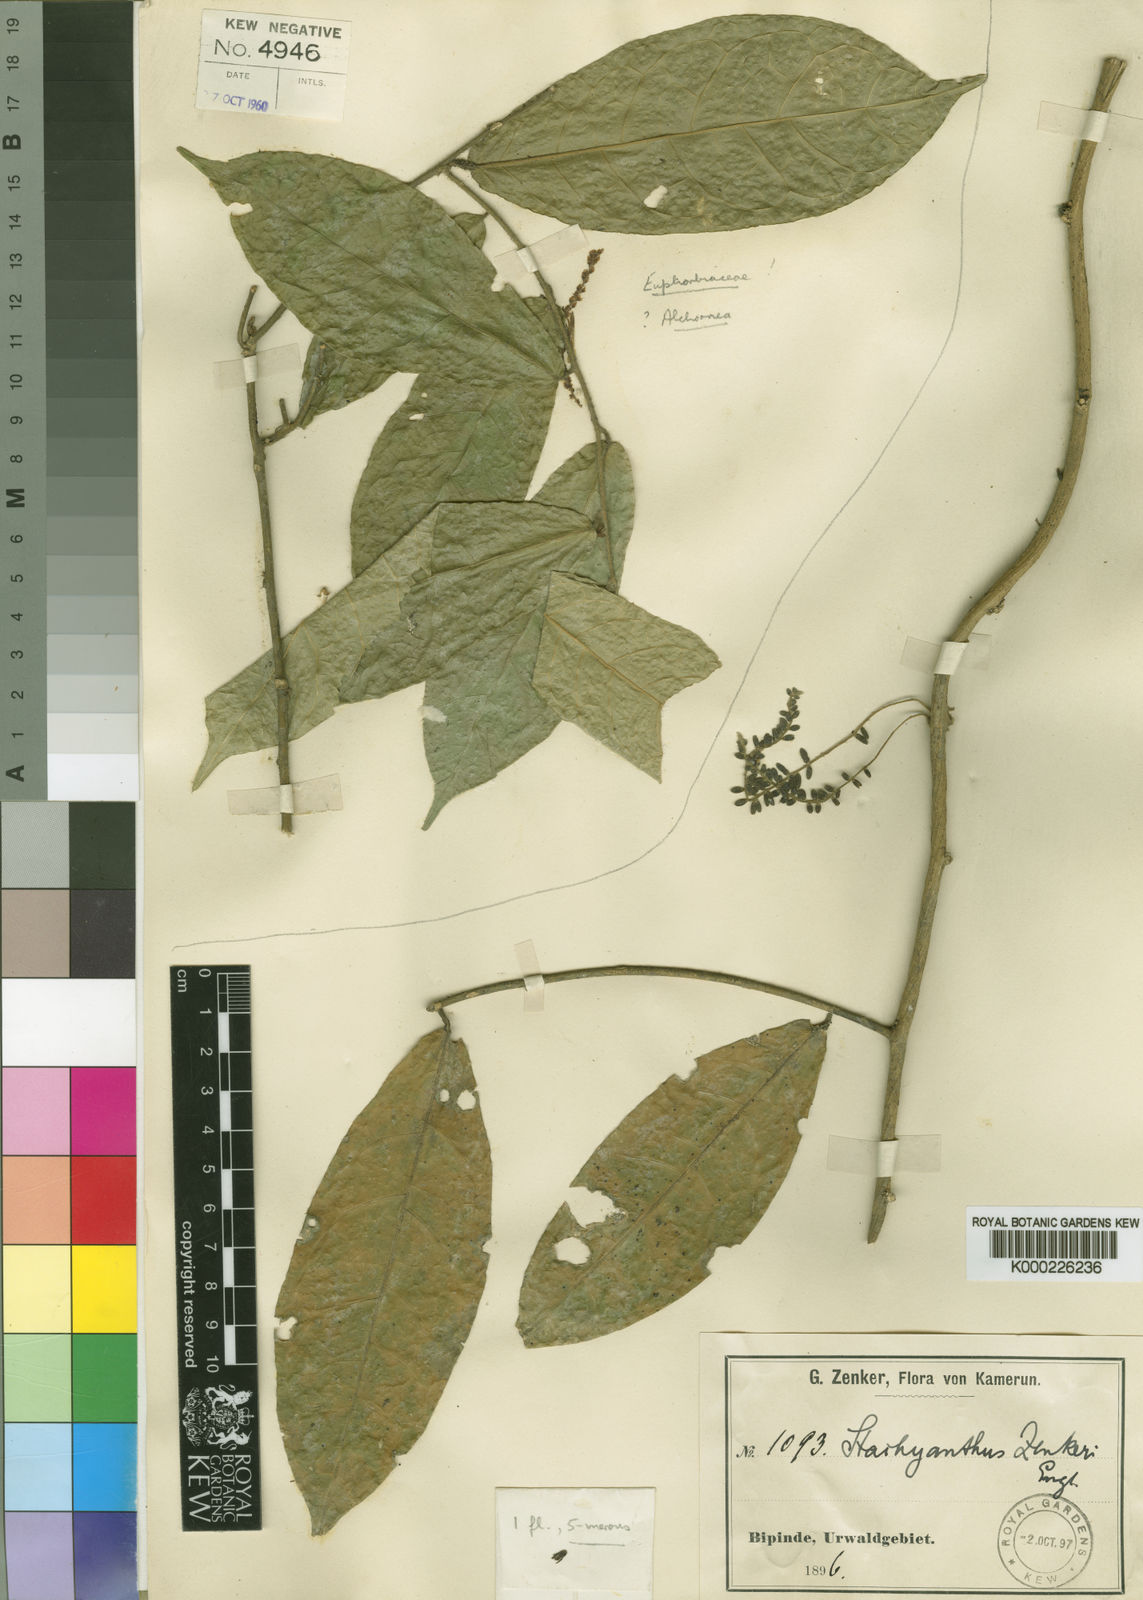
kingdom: Plantae
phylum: Tracheophyta
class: Magnoliopsida
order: Icacinales
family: Icacinaceae
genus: Stachyanthus
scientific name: Stachyanthus zenkeri
